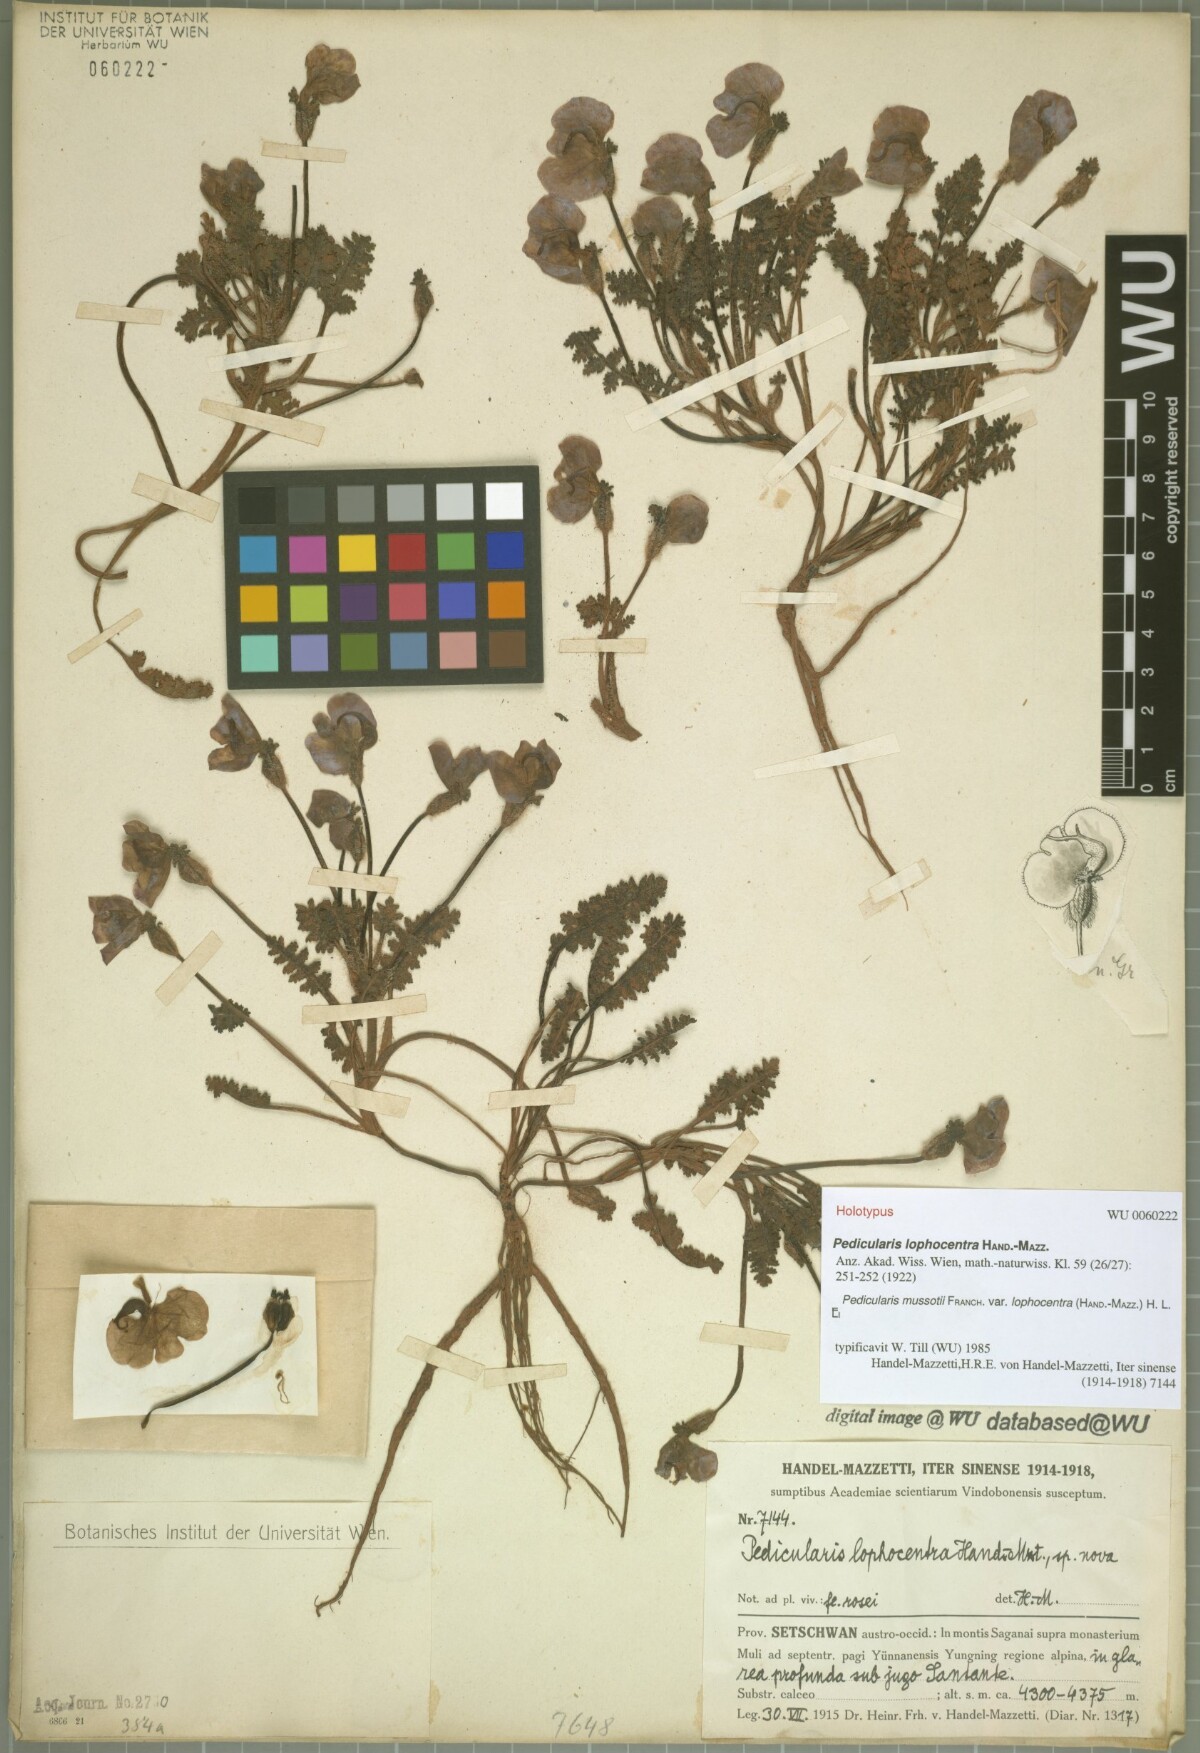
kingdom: Plantae
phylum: Tracheophyta
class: Magnoliopsida
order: Lamiales
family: Orobanchaceae
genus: Pedicularis
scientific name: Pedicularis mussotii
